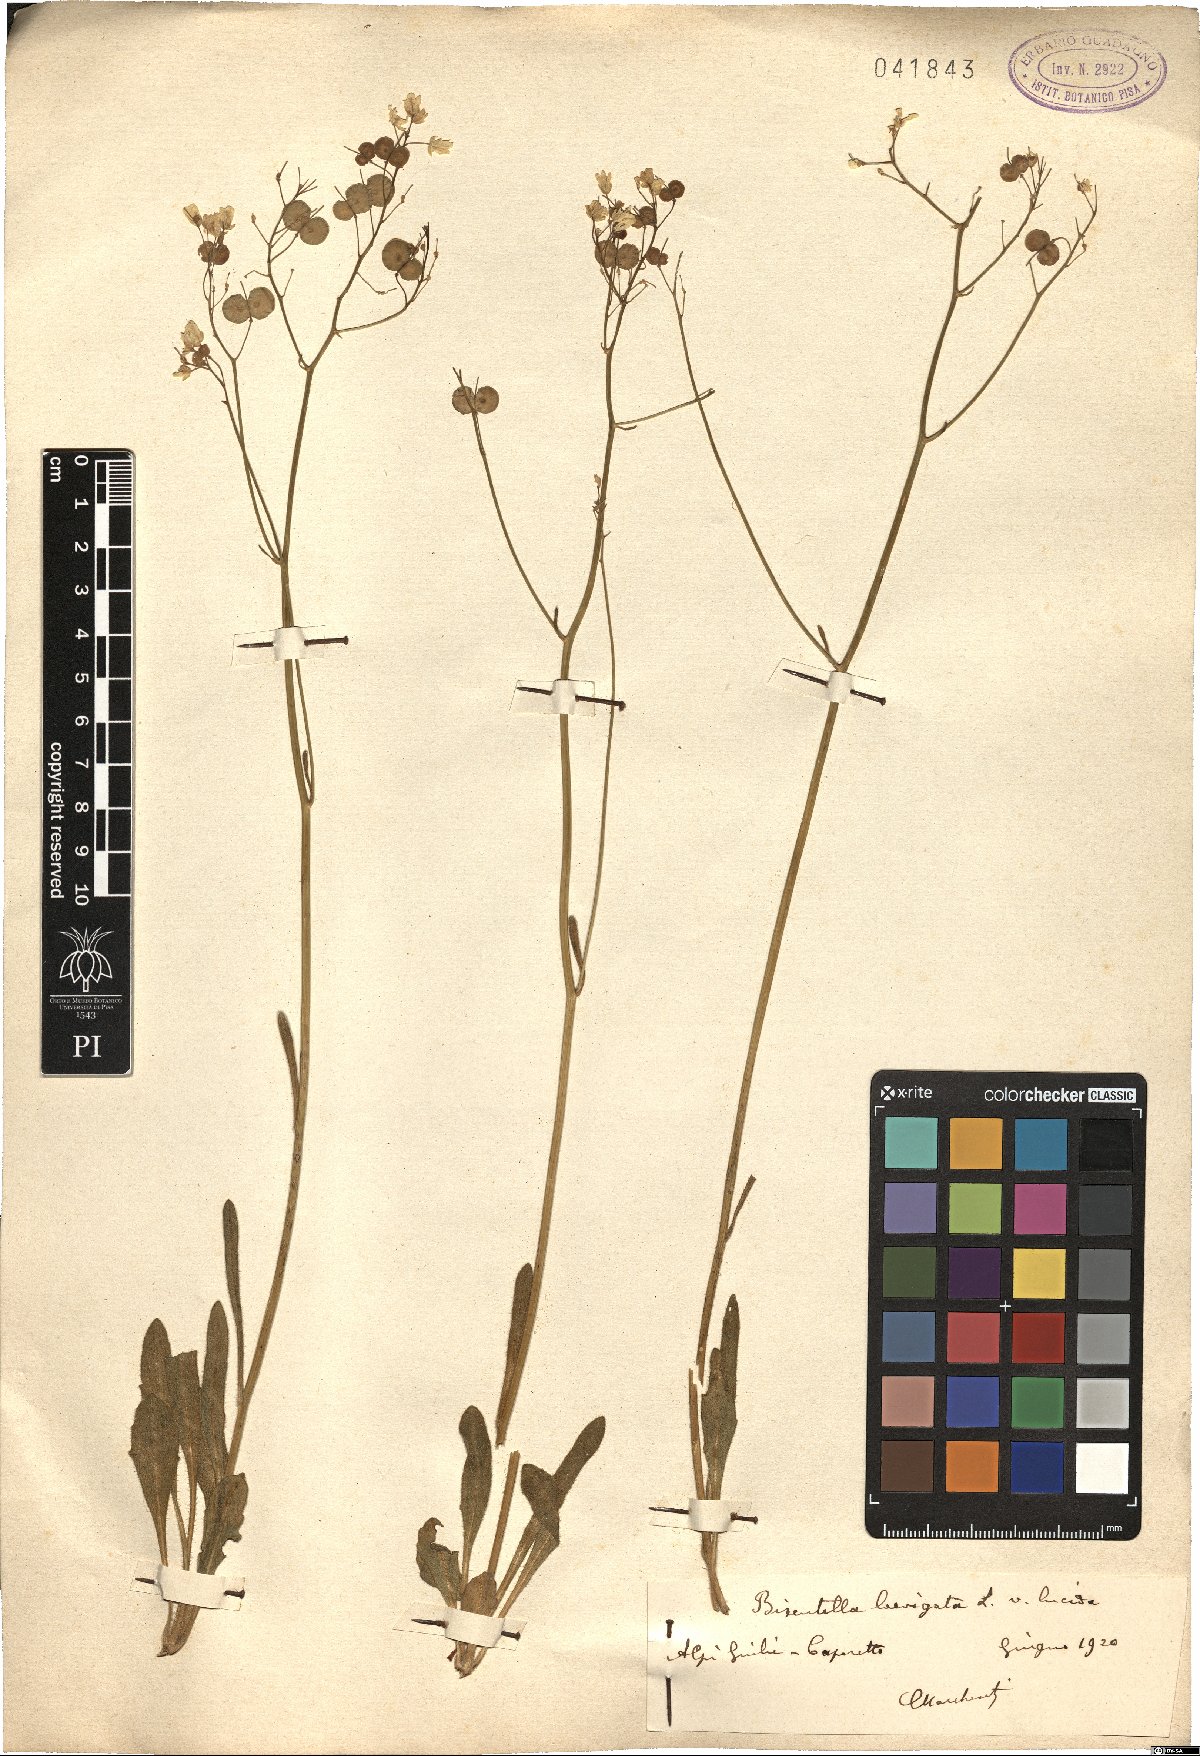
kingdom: Plantae
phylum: Tracheophyta
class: Magnoliopsida
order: Brassicales
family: Brassicaceae
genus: Biscutella
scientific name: Biscutella laevigata
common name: Buckler mustard
